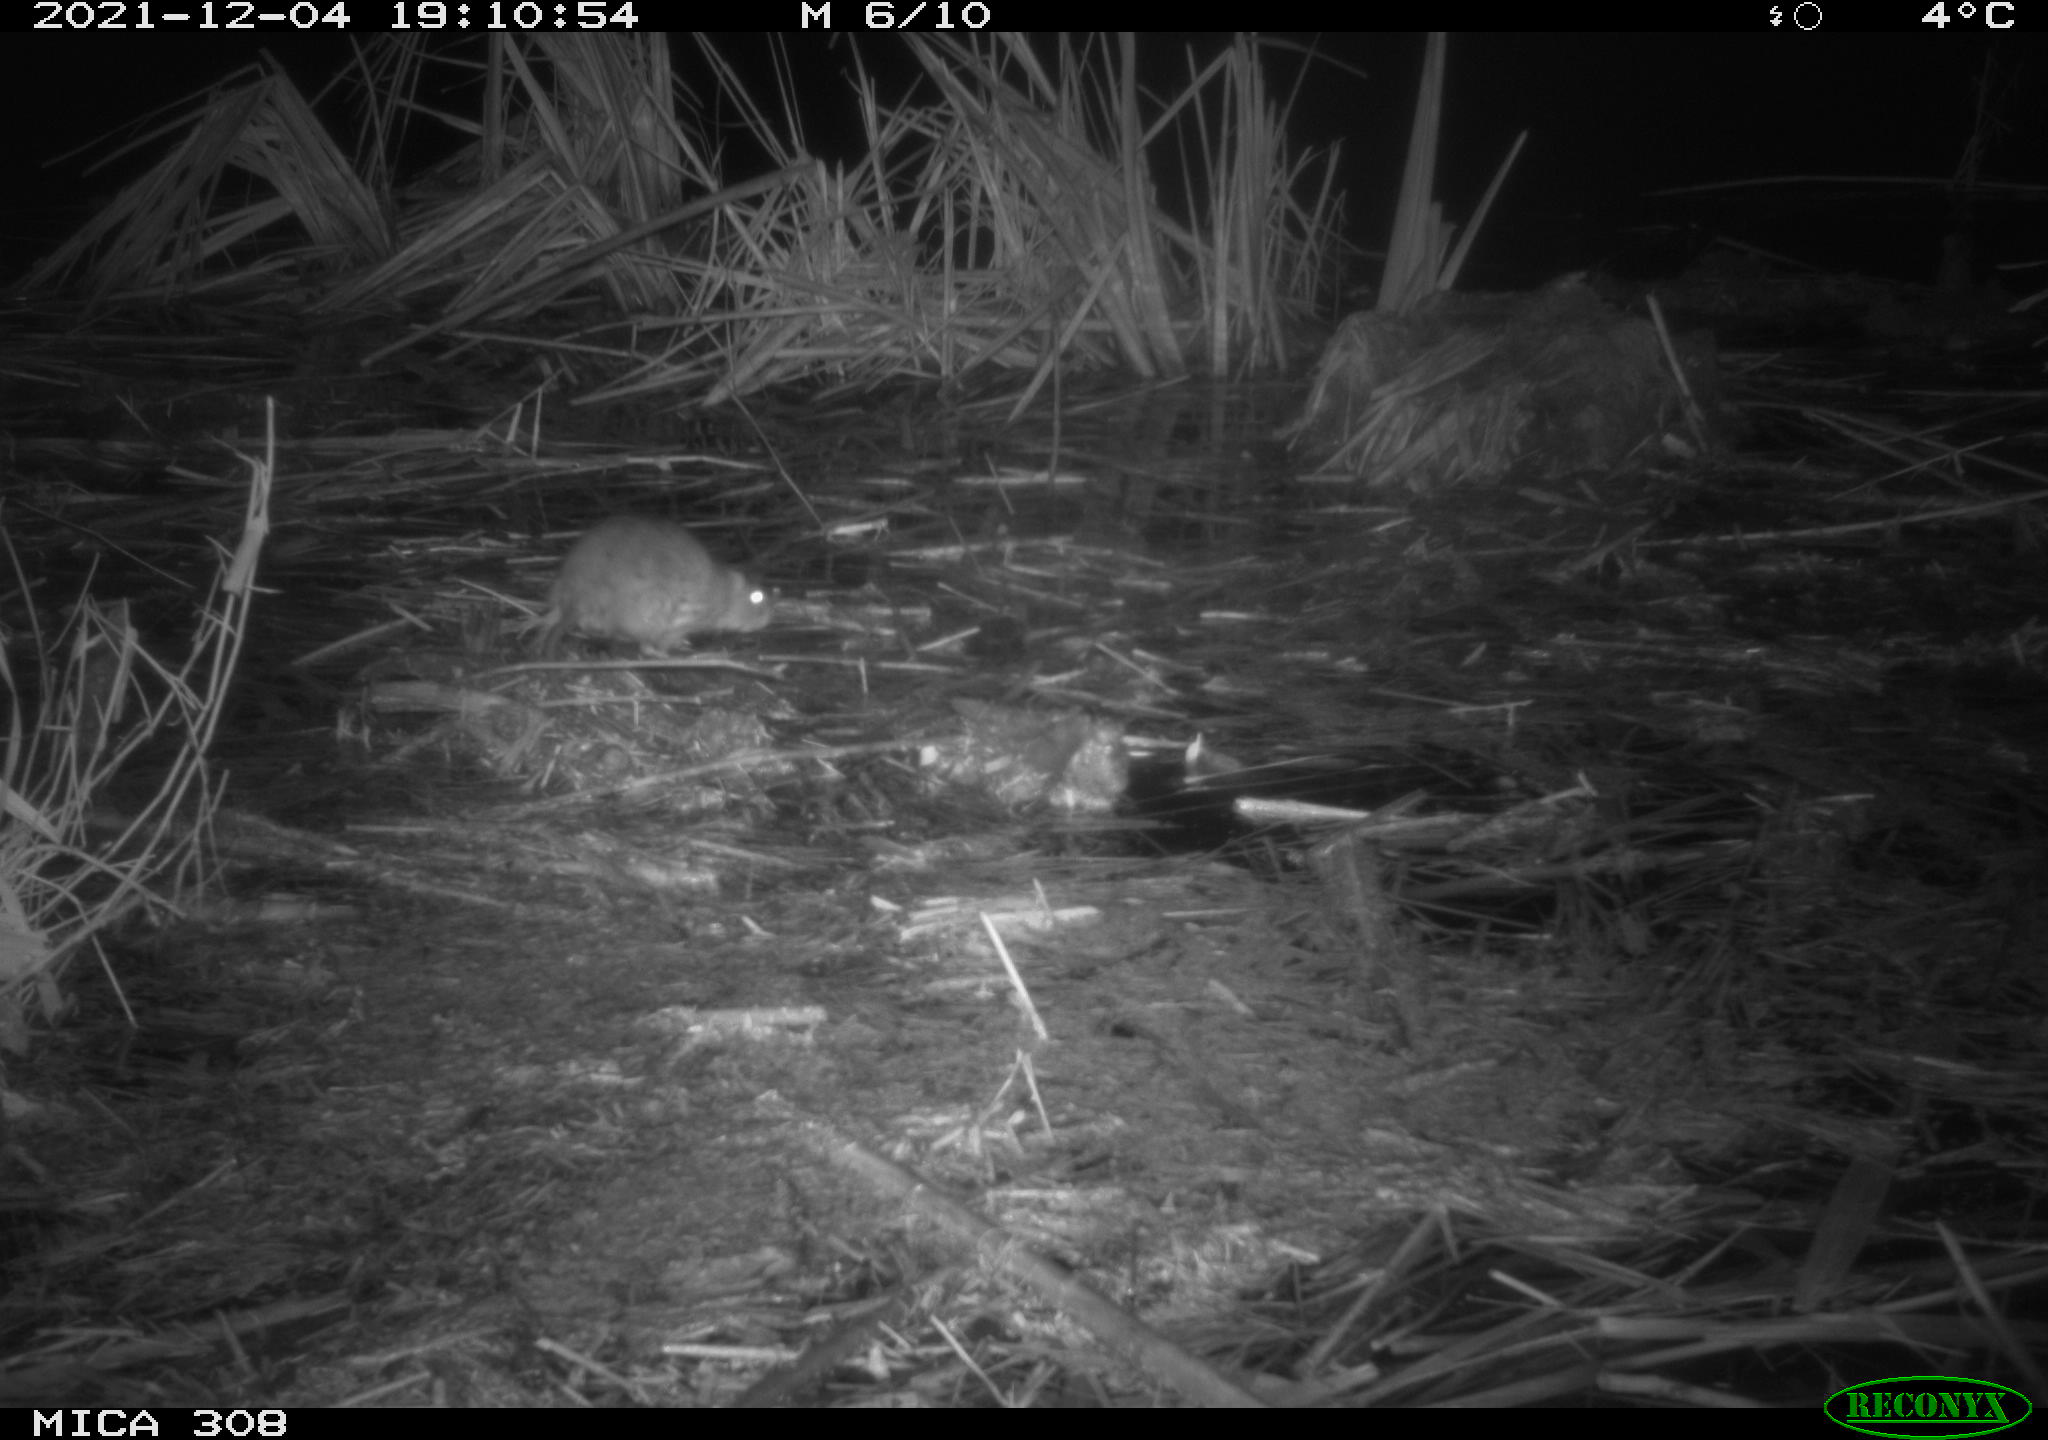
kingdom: Animalia
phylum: Chordata
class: Mammalia
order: Rodentia
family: Muridae
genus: Rattus
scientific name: Rattus norvegicus
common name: Brown rat
